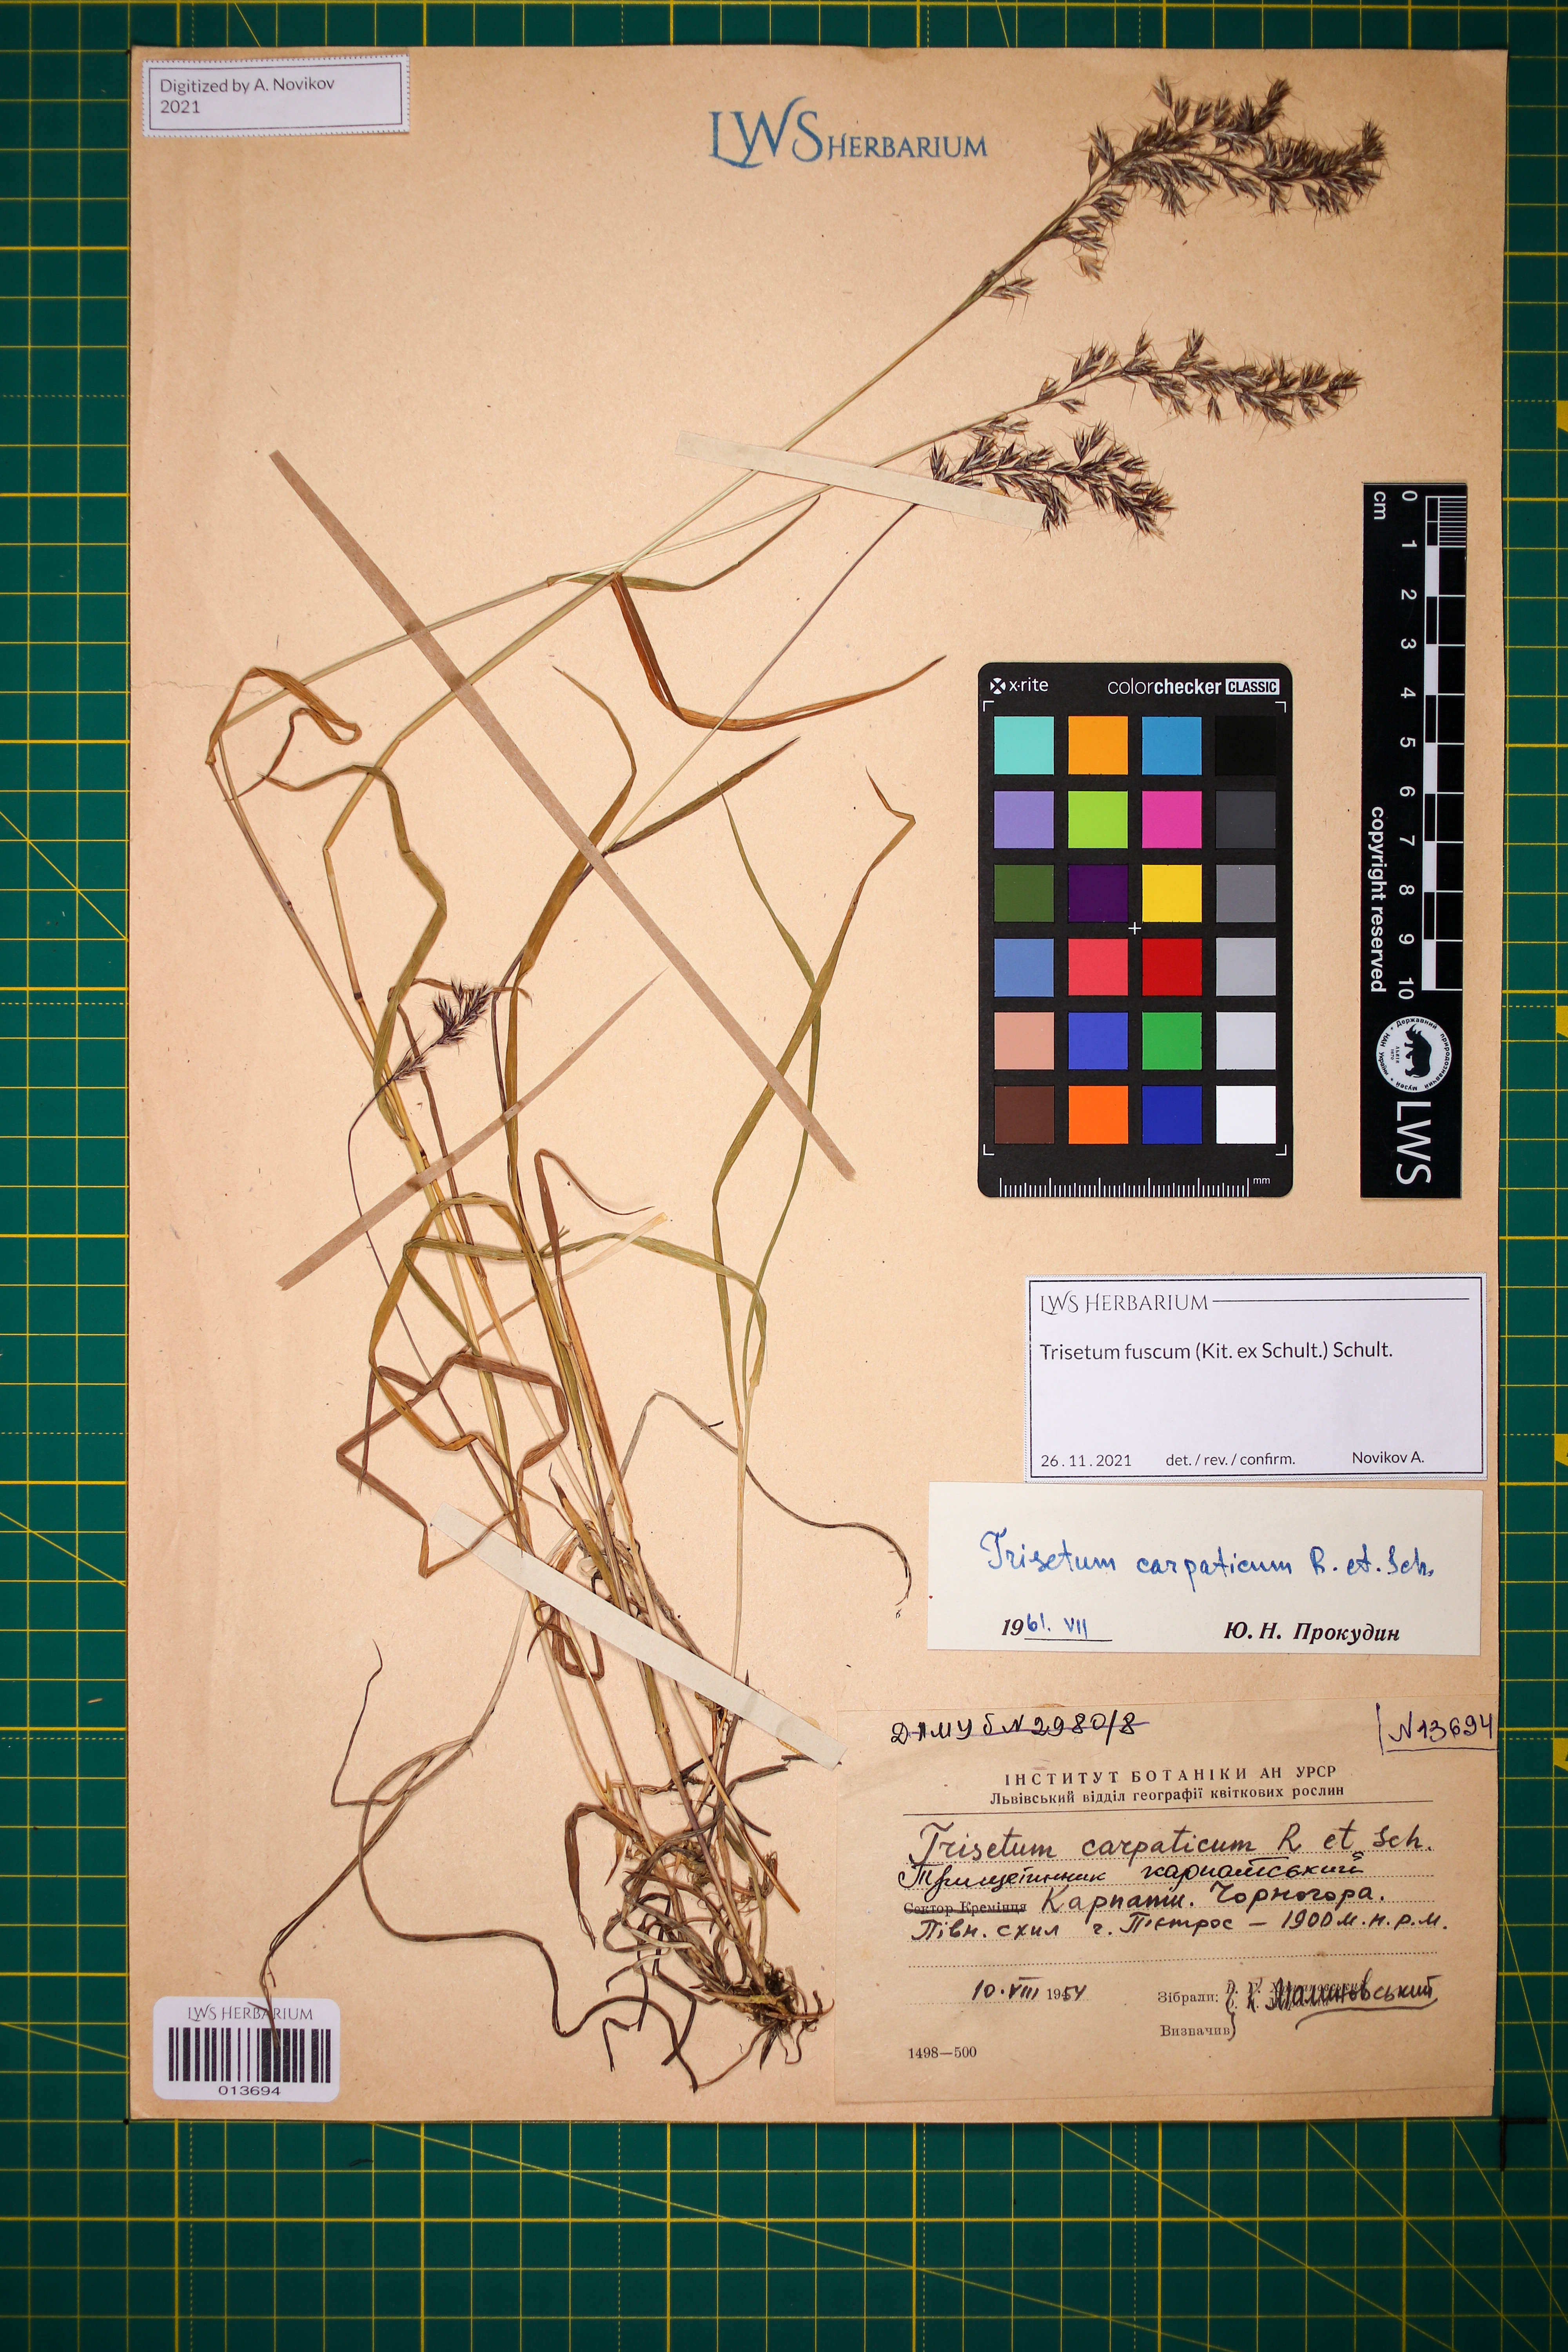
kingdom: Plantae
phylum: Tracheophyta
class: Liliopsida
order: Poales
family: Poaceae
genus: Trisetum
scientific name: Trisetum fuscum
